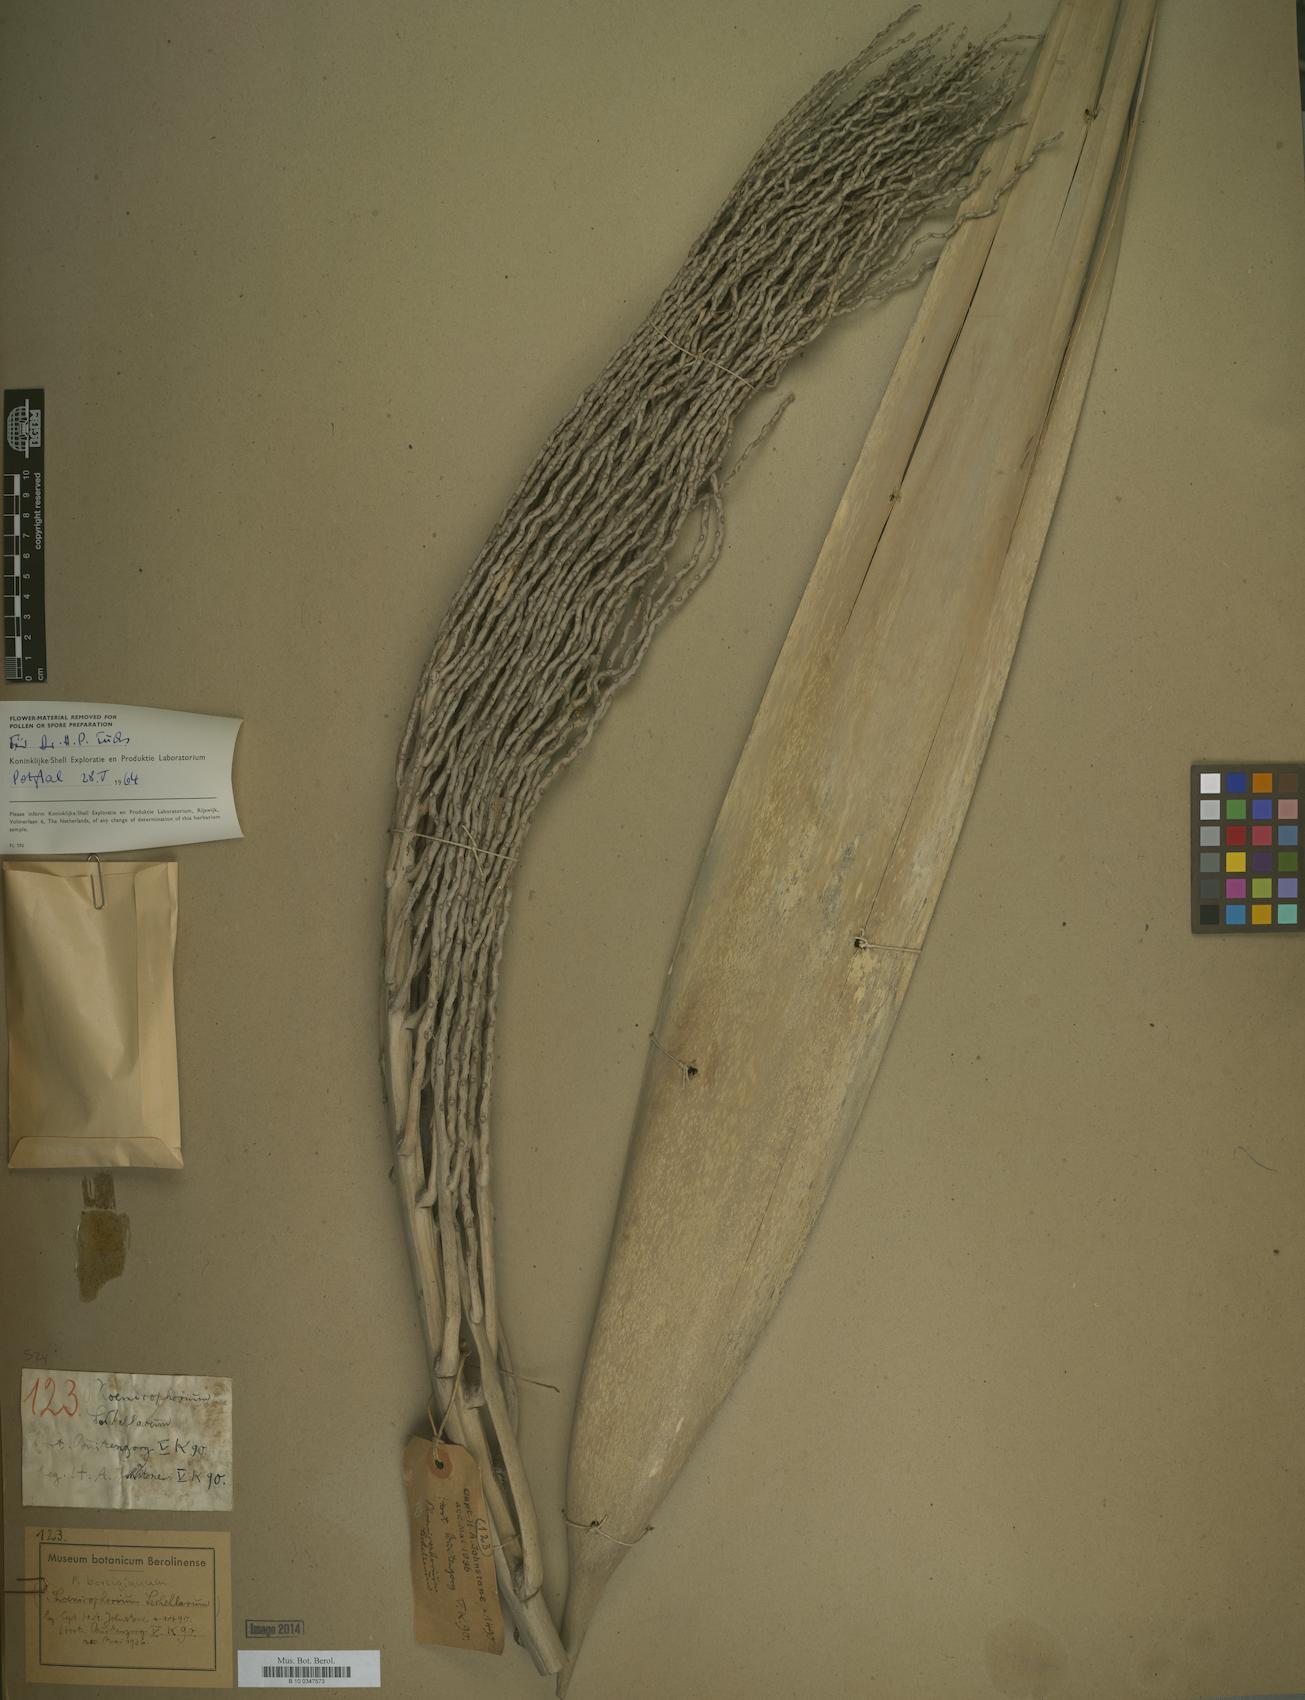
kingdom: Plantae
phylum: Tracheophyta
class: Liliopsida
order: Arecales
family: Arecaceae
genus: Phoenicophorium
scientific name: Phoenicophorium borsigianum
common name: Thief palm
